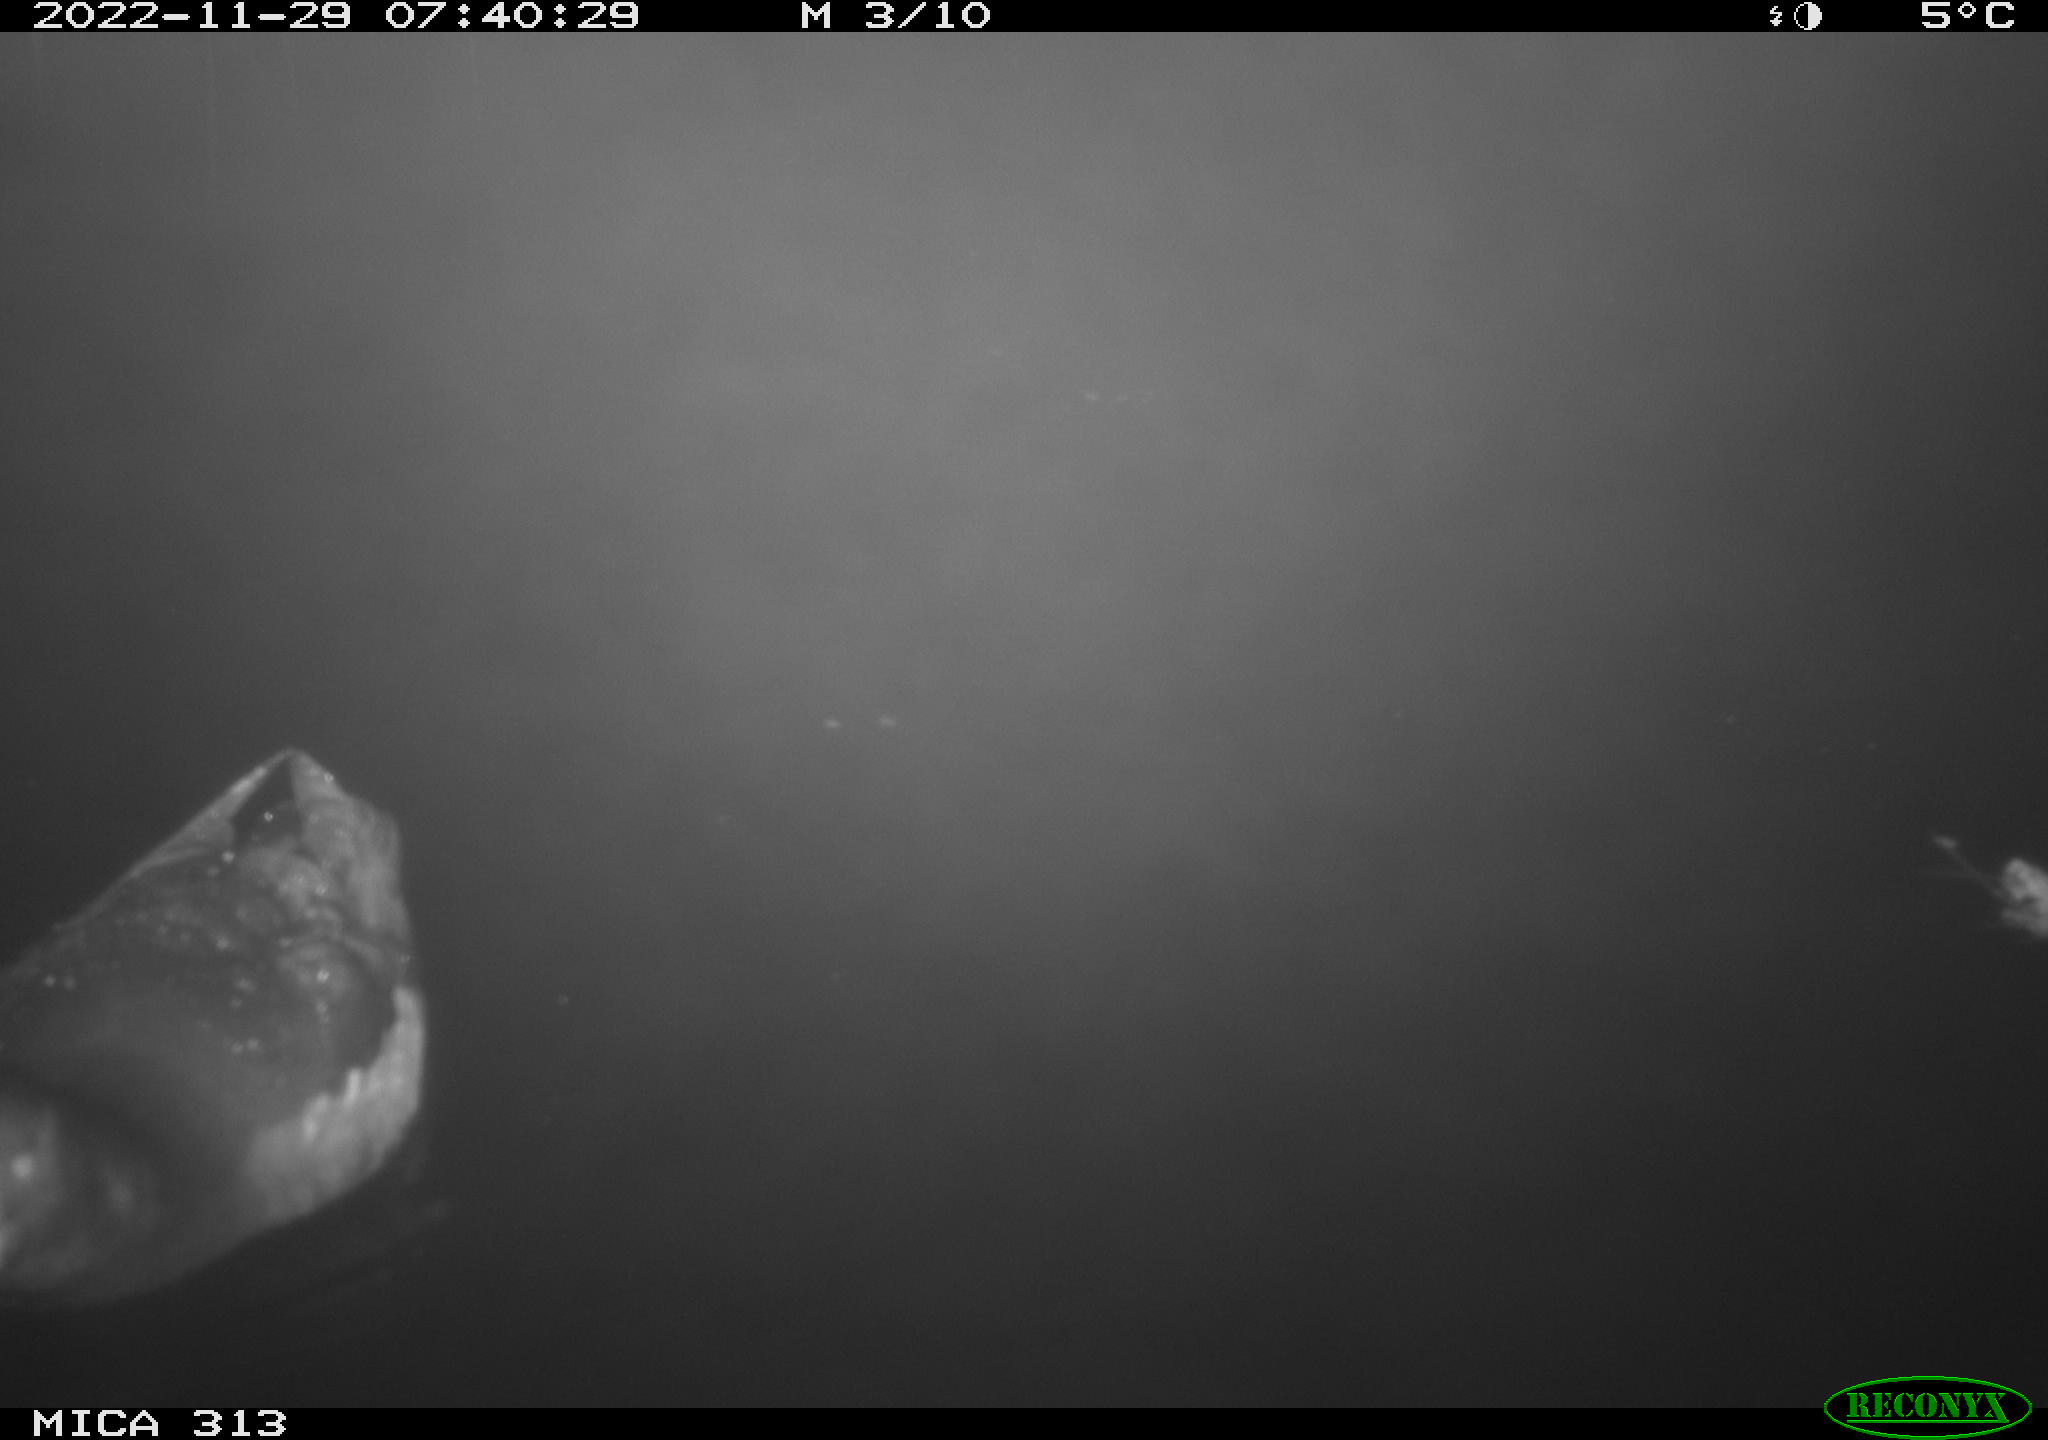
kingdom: Animalia
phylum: Chordata
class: Aves
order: Anseriformes
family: Anatidae
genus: Anas
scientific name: Anas
